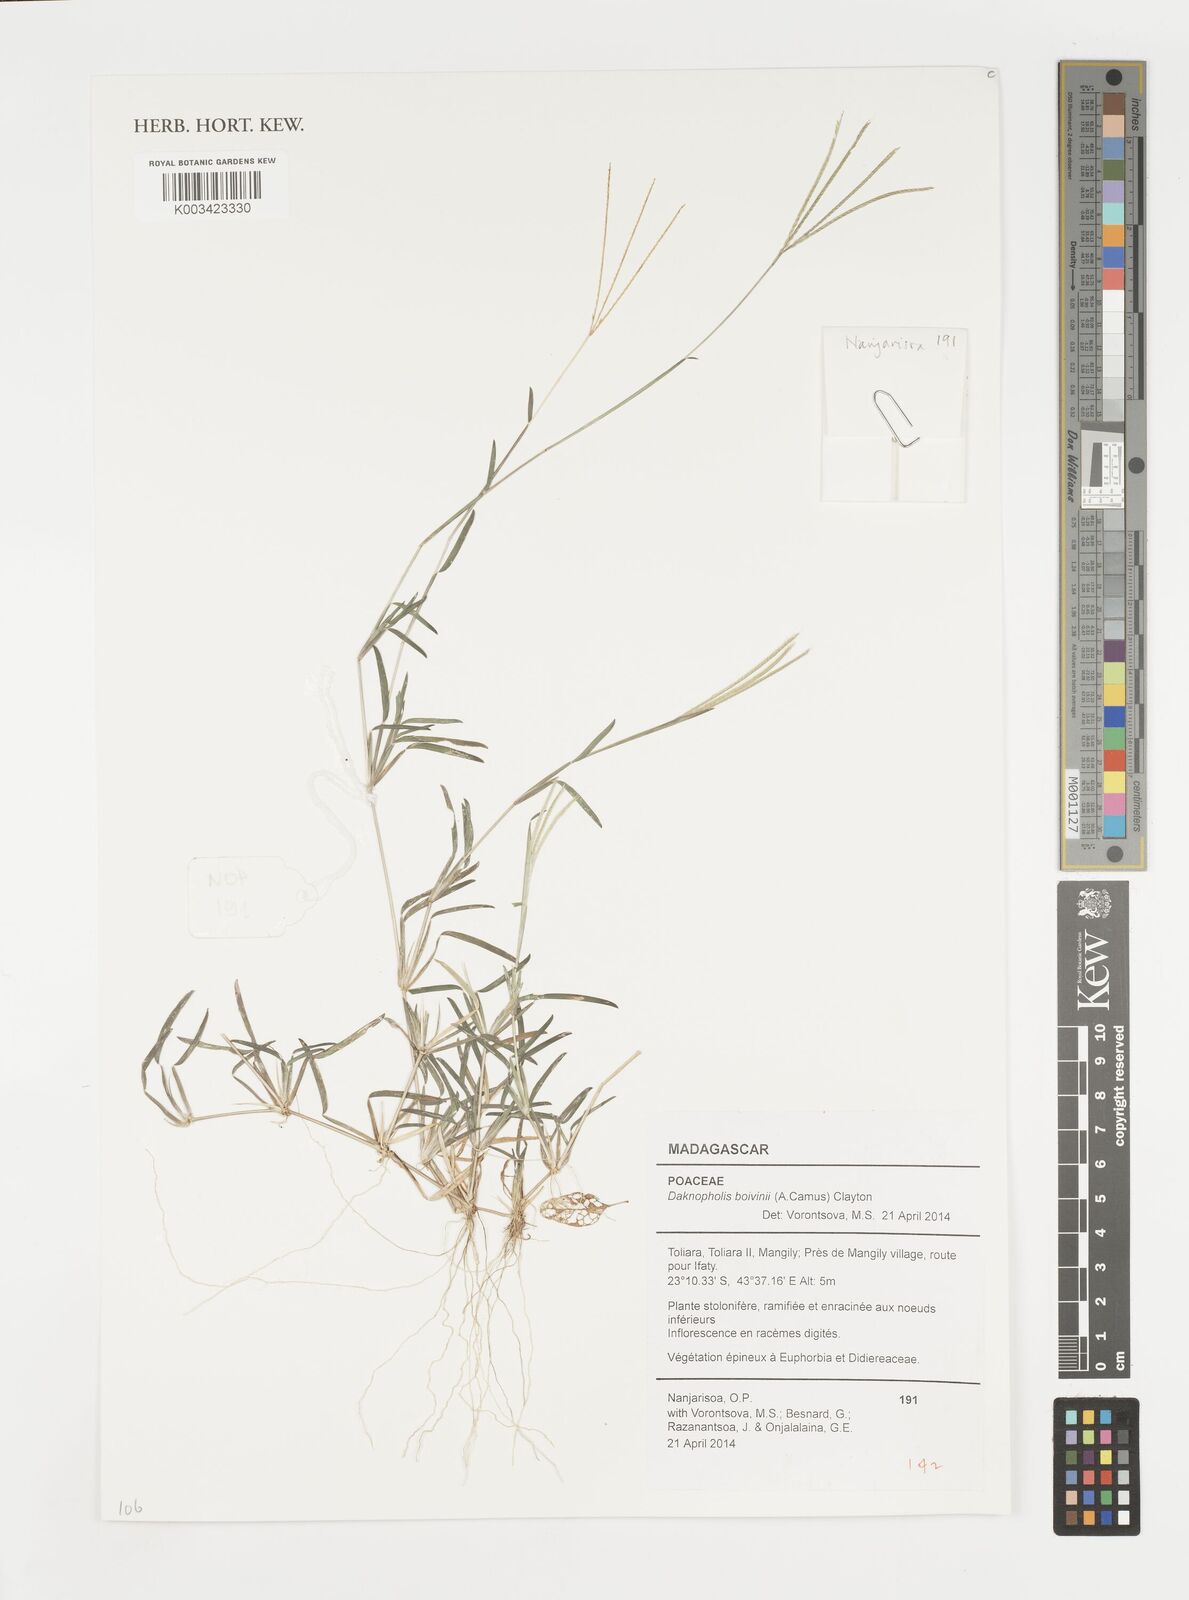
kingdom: Plantae
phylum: Tracheophyta
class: Liliopsida
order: Poales
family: Poaceae
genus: Daknopholis
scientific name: Daknopholis boivinii
